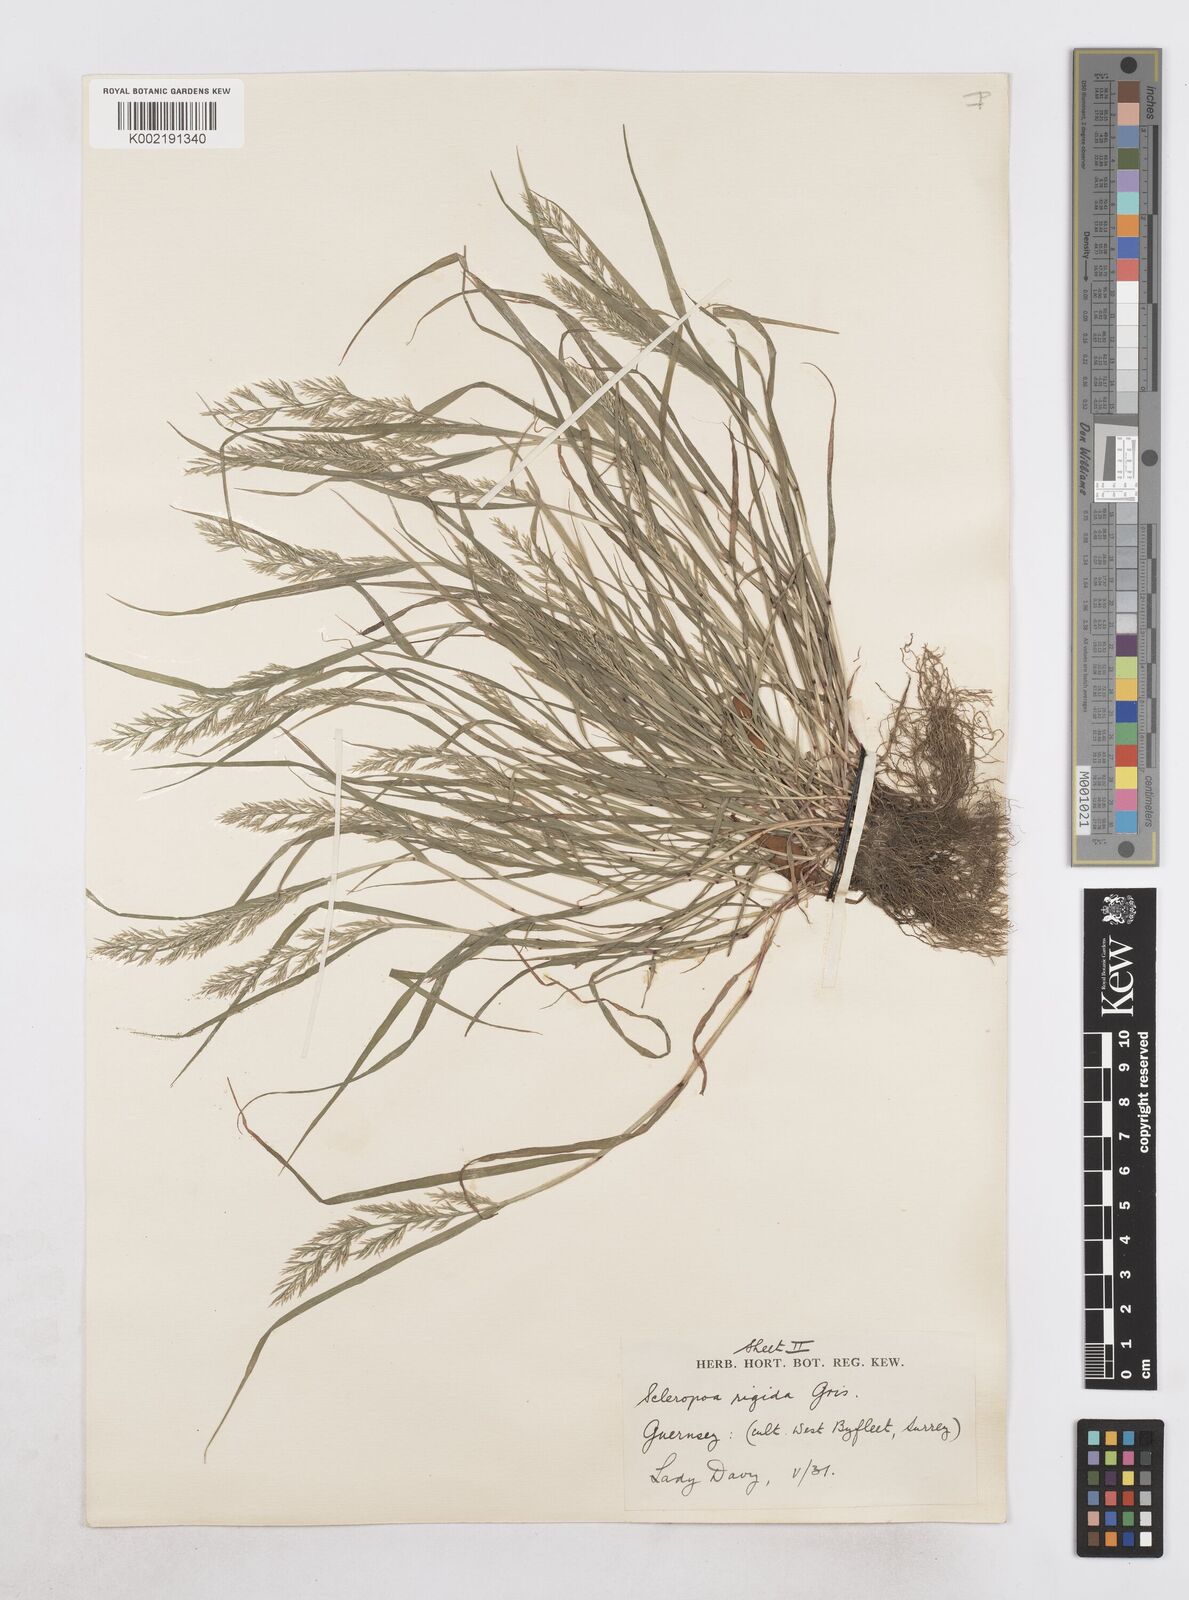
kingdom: Plantae
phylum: Tracheophyta
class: Liliopsida
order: Poales
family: Poaceae
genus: Catapodium
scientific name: Catapodium rigidum
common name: Fern-grass
